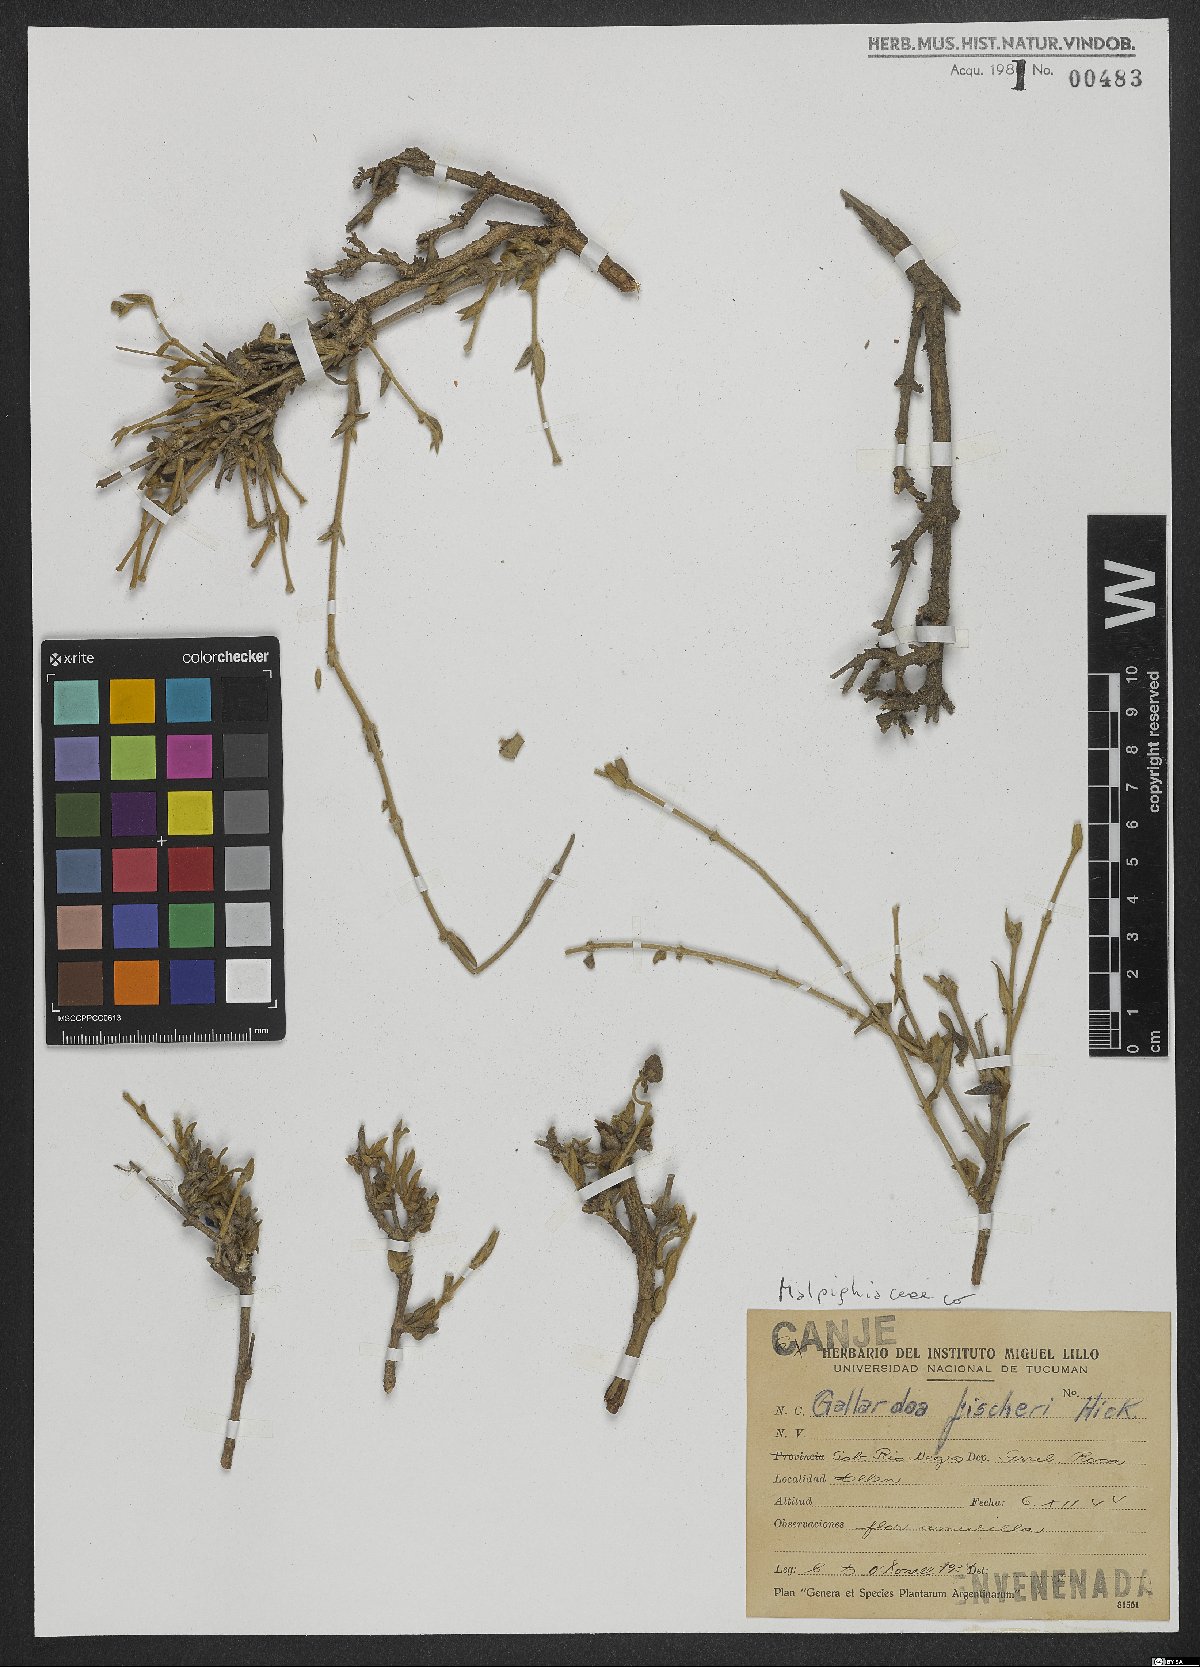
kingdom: Plantae
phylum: Tracheophyta
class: Magnoliopsida
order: Malpighiales
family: Malpighiaceae
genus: Cordobia
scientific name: Cordobia fischeri
